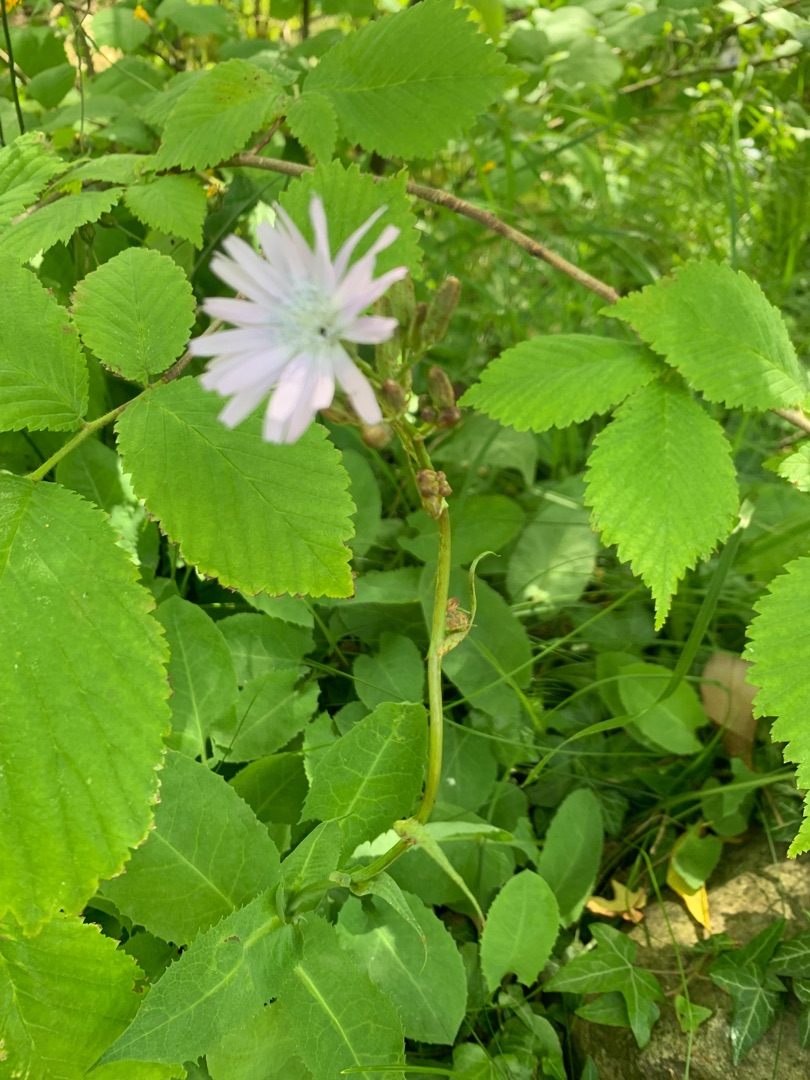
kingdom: Plantae
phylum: Tracheophyta
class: Magnoliopsida
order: Asterales
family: Asteraceae
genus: Lactuca
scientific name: Lactuca macrophylla
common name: Kæmpe-salat
